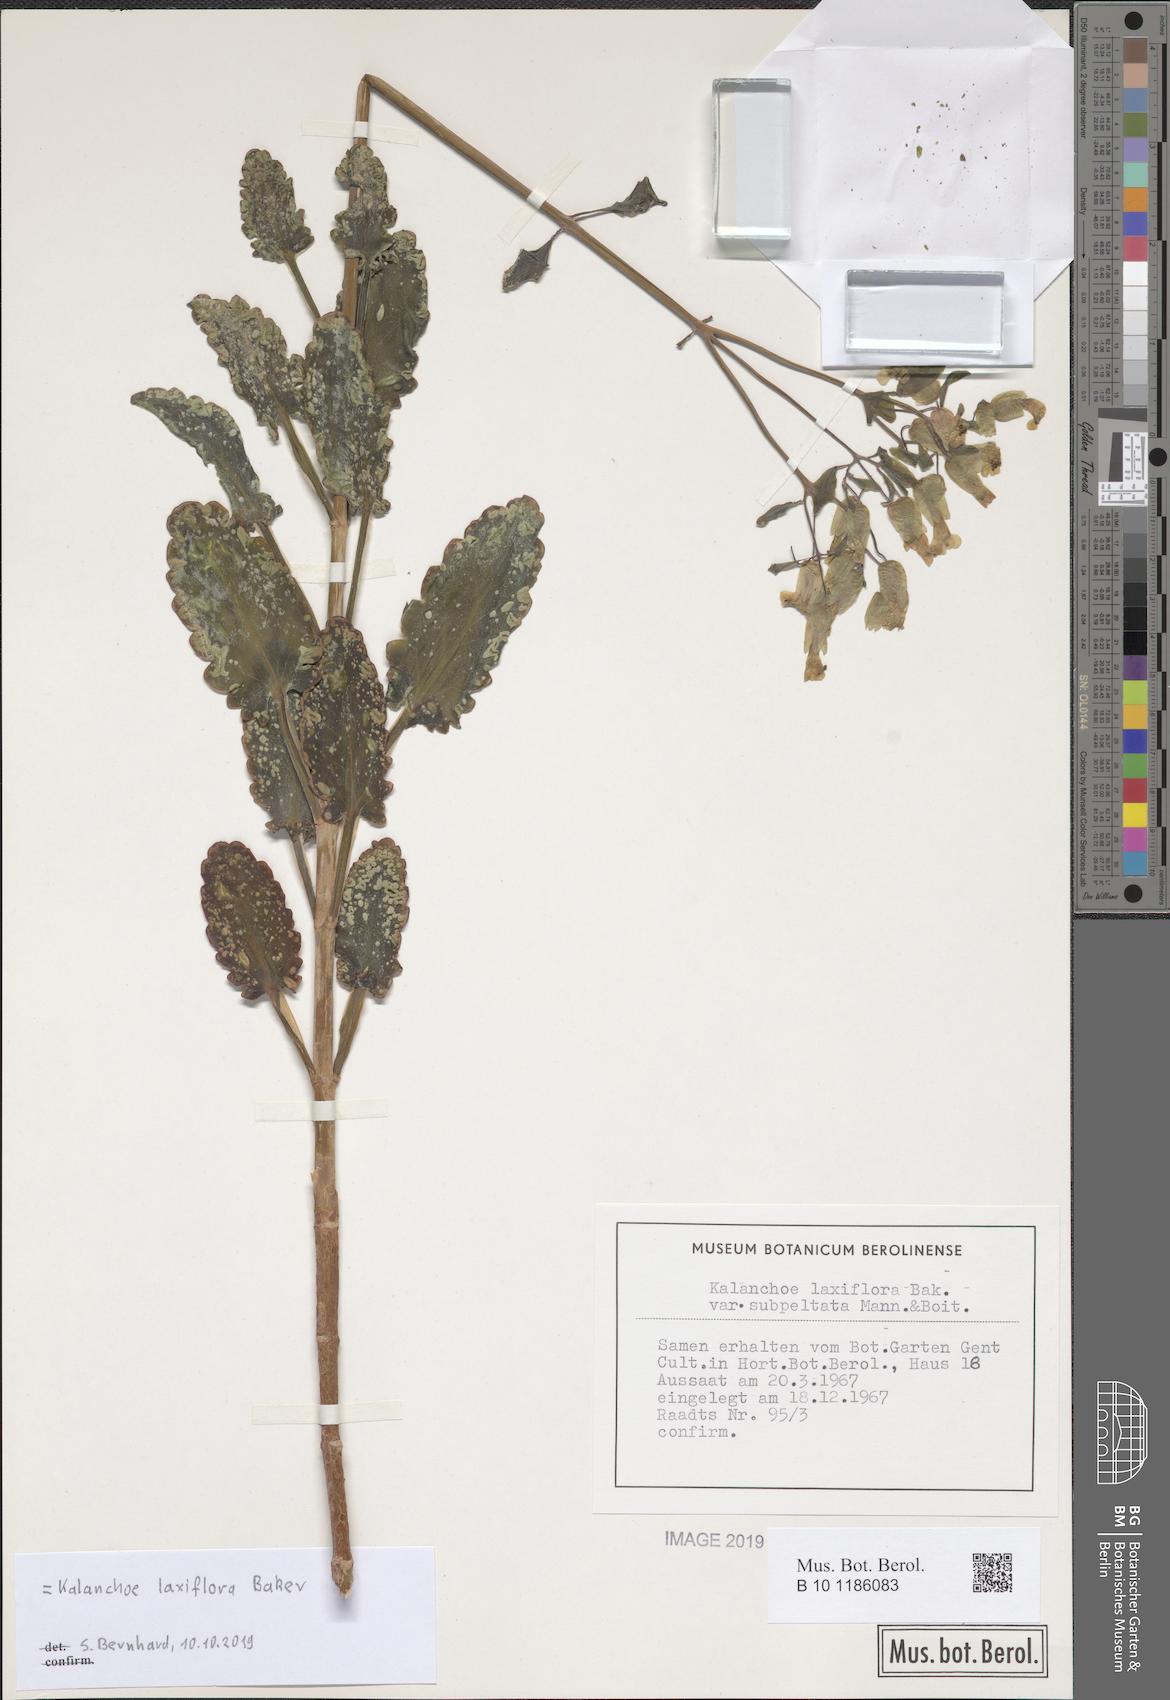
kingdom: Plantae
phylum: Tracheophyta
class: Magnoliopsida
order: Saxifragales
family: Crassulaceae
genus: Kalanchoe
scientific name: Kalanchoe laxiflora
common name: Milky widow's thrill
